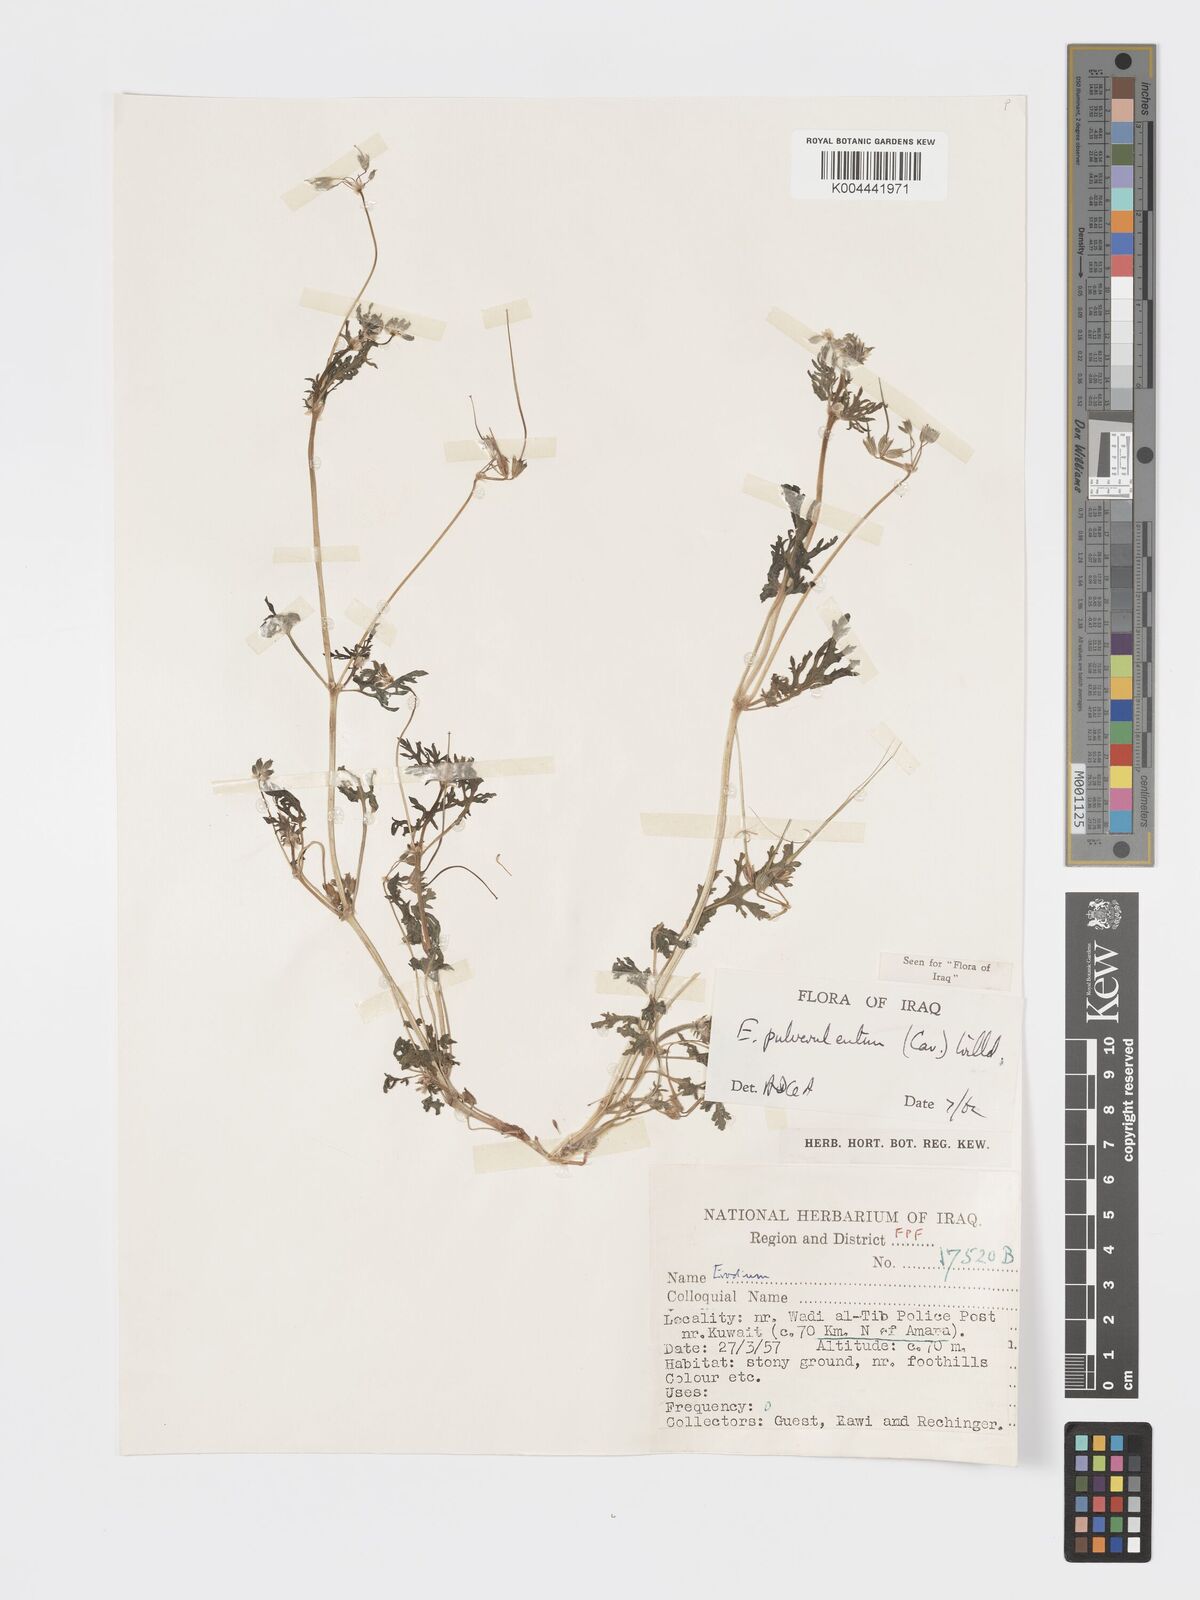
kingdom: Plantae
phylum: Tracheophyta
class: Magnoliopsida
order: Geraniales
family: Geraniaceae
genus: Erodium
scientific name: Erodium laciniatum
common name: Cutleaf stork's bill
